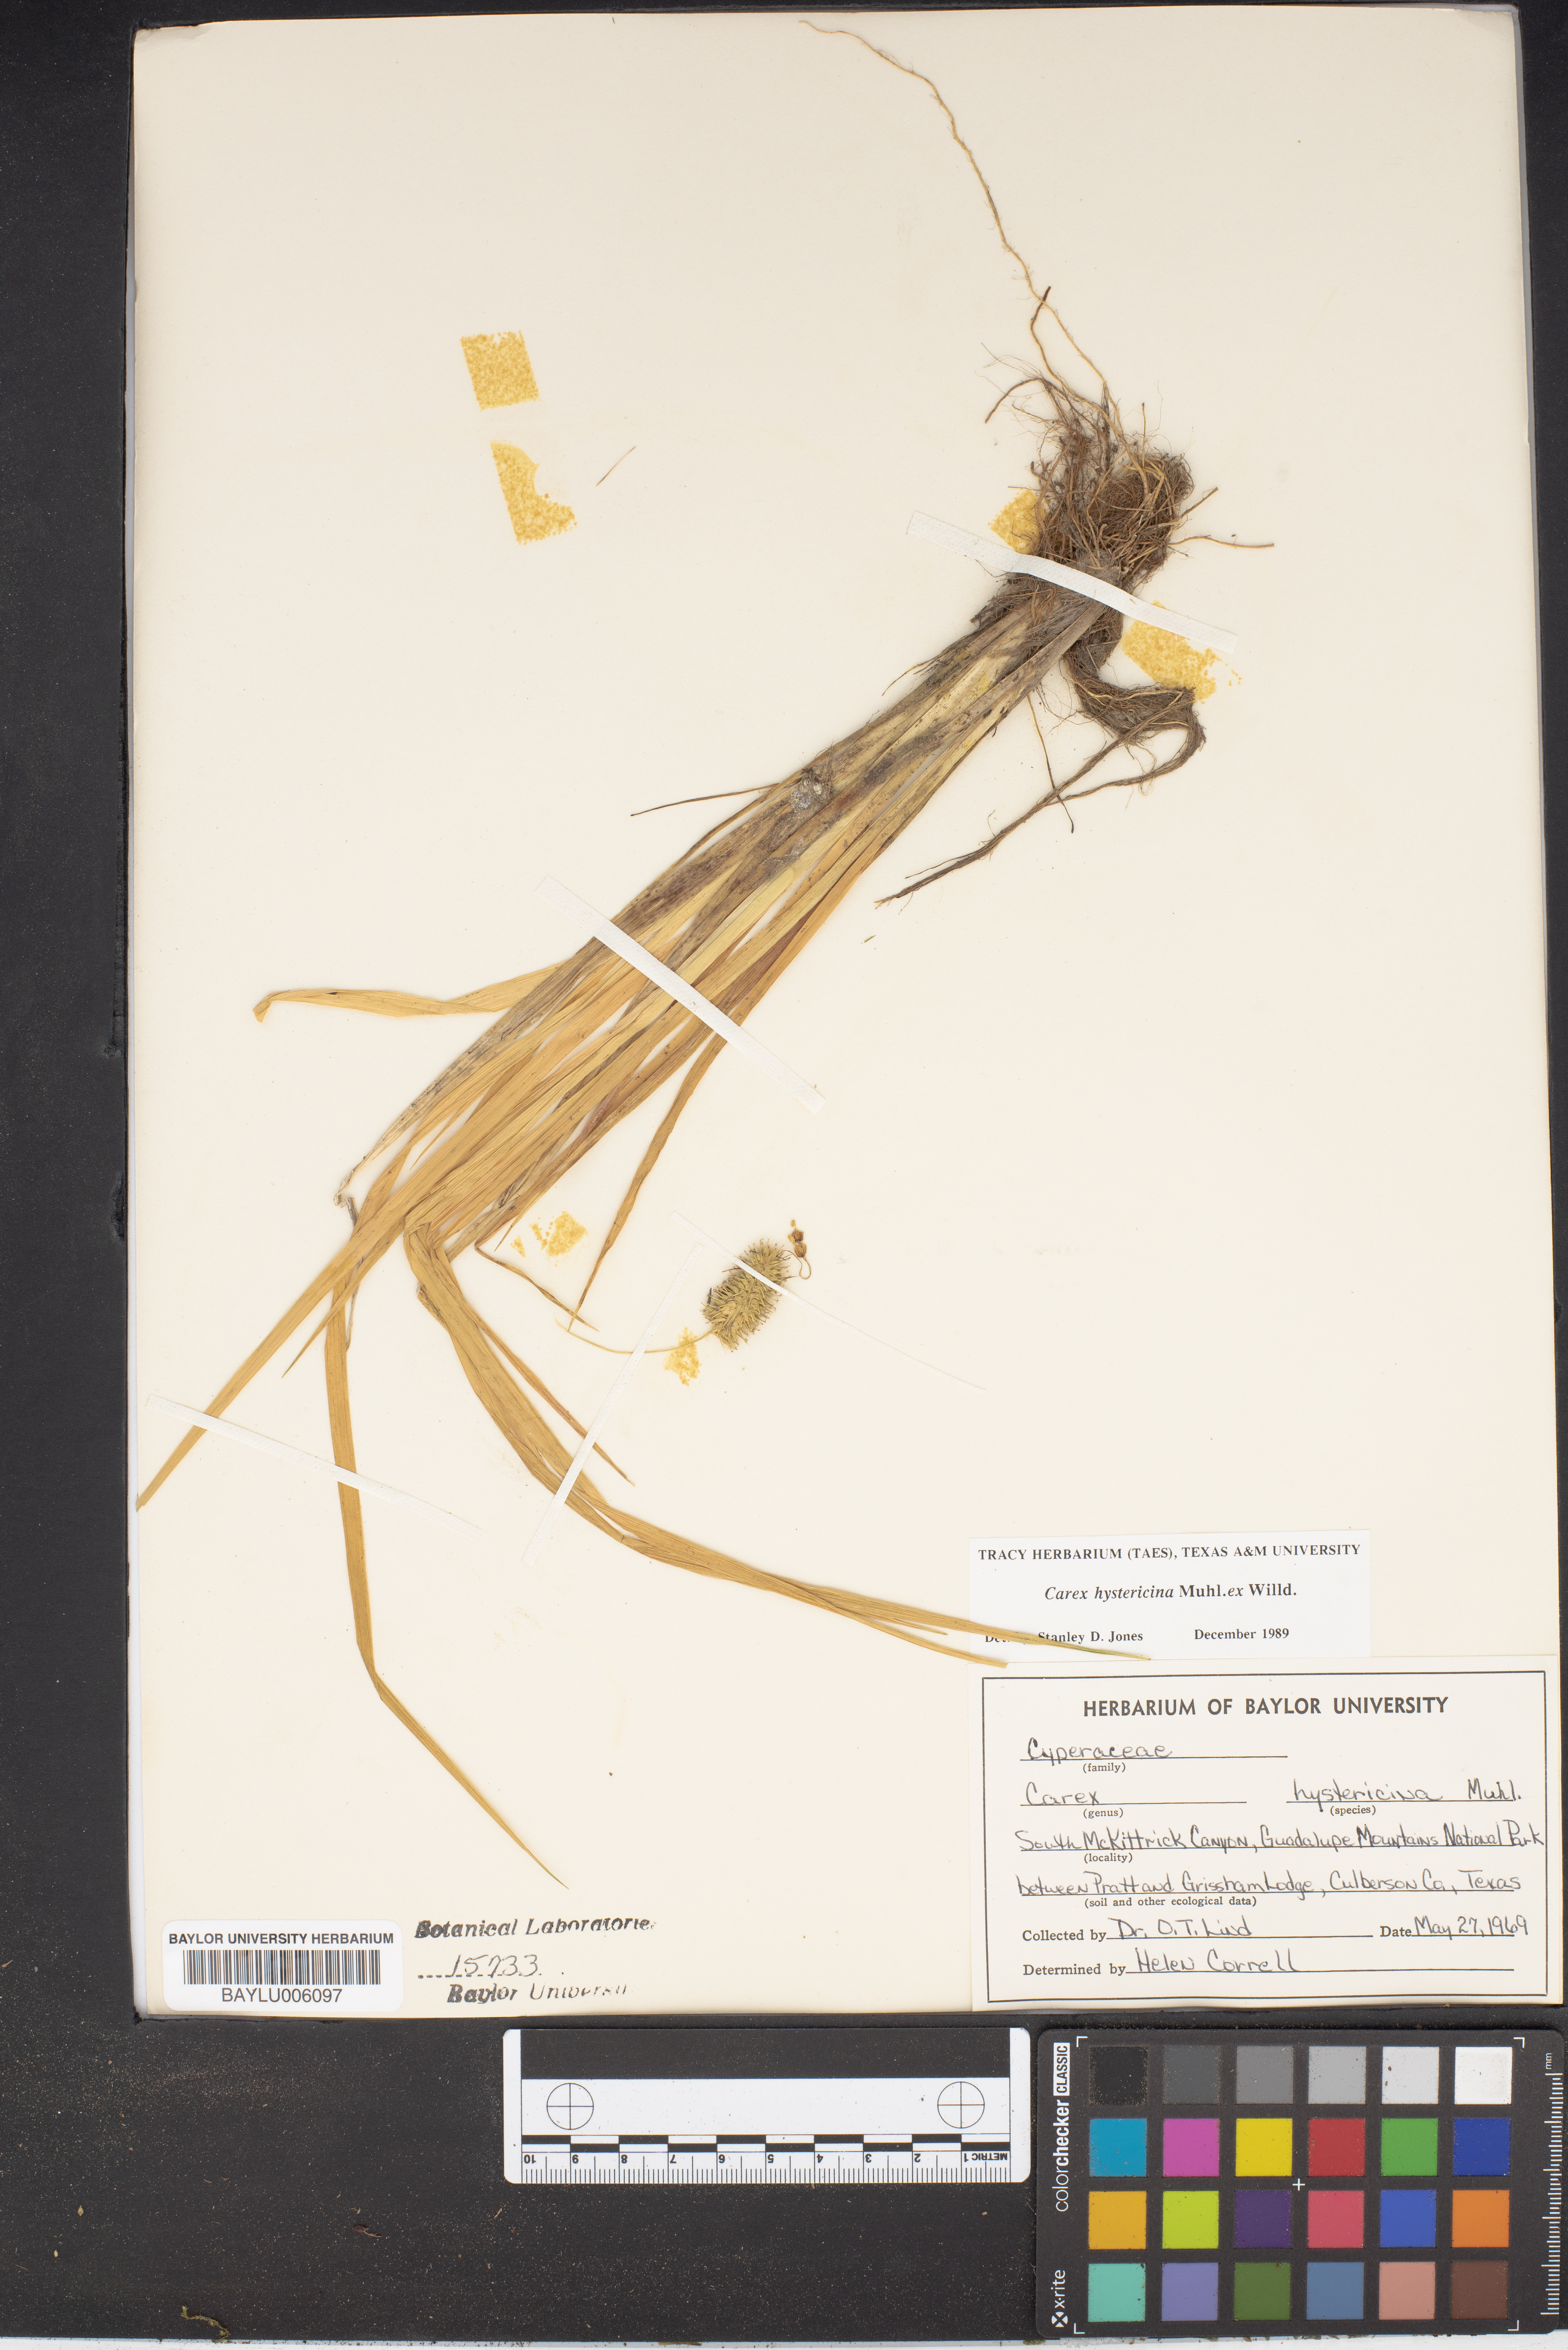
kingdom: Plantae
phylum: Tracheophyta
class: Liliopsida
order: Poales
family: Cyperaceae
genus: Carex
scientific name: Carex hystericina
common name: Bottlebrush sedge
